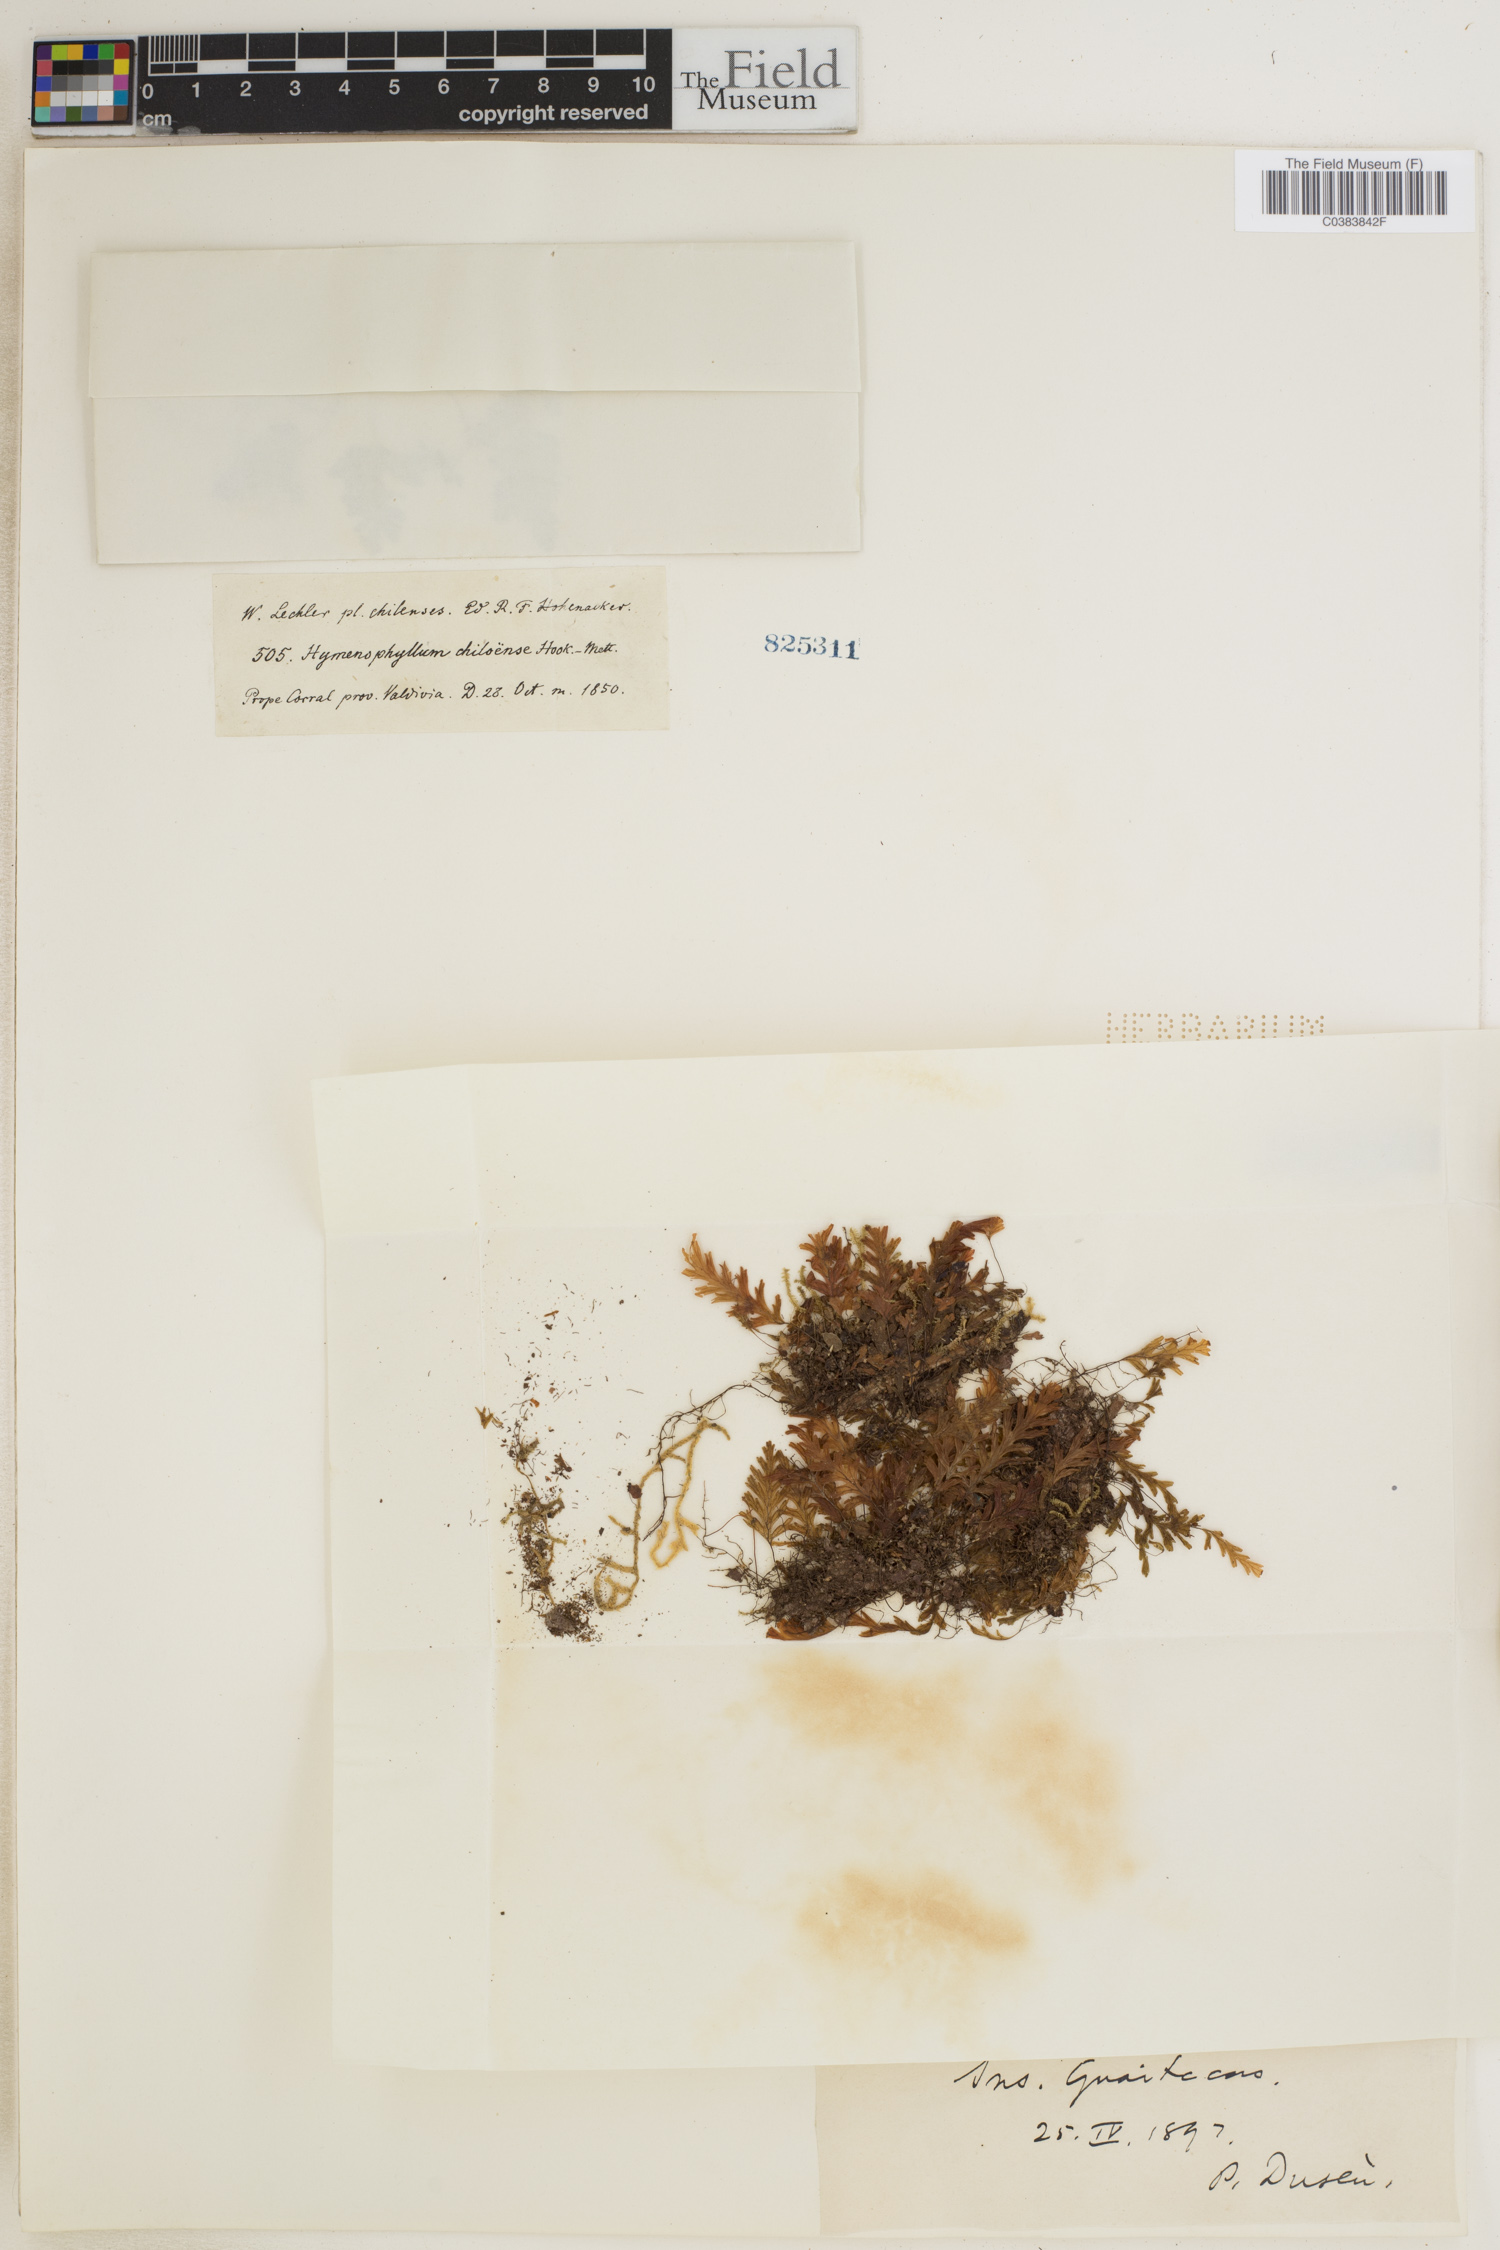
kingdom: Plantae
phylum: Tracheophyta
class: Polypodiopsida
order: Hymenophyllales
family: Hymenophyllaceae
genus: Hymenophyllum
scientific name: Hymenophyllum dicranotrichum
